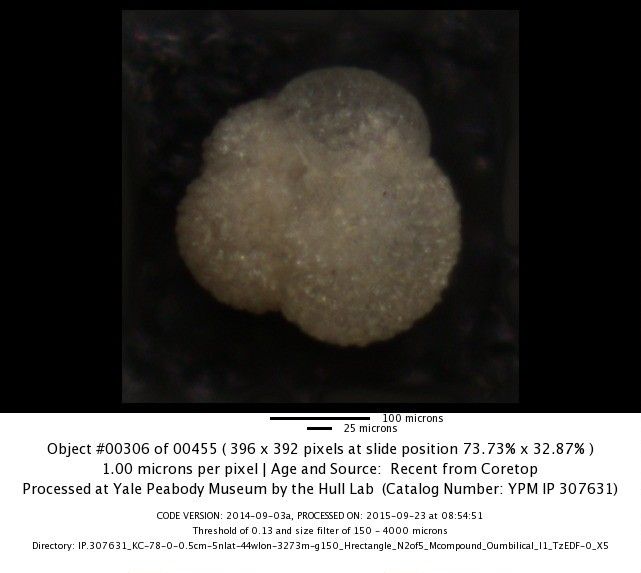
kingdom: Chromista
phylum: Foraminifera
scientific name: Foraminifera
